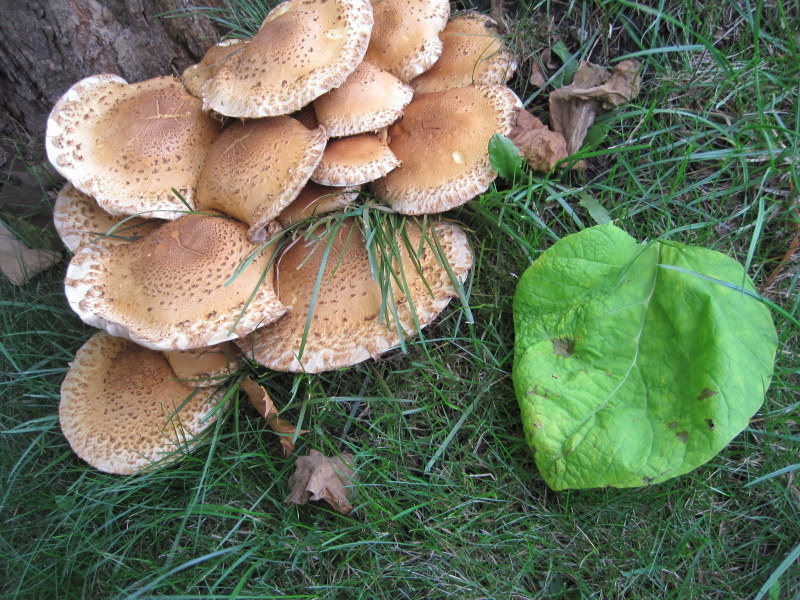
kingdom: Fungi
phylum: Basidiomycota
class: Agaricomycetes
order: Agaricales
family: Strophariaceae
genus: Pholiota
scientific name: Pholiota squarrosa
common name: krumskællet skælhat
